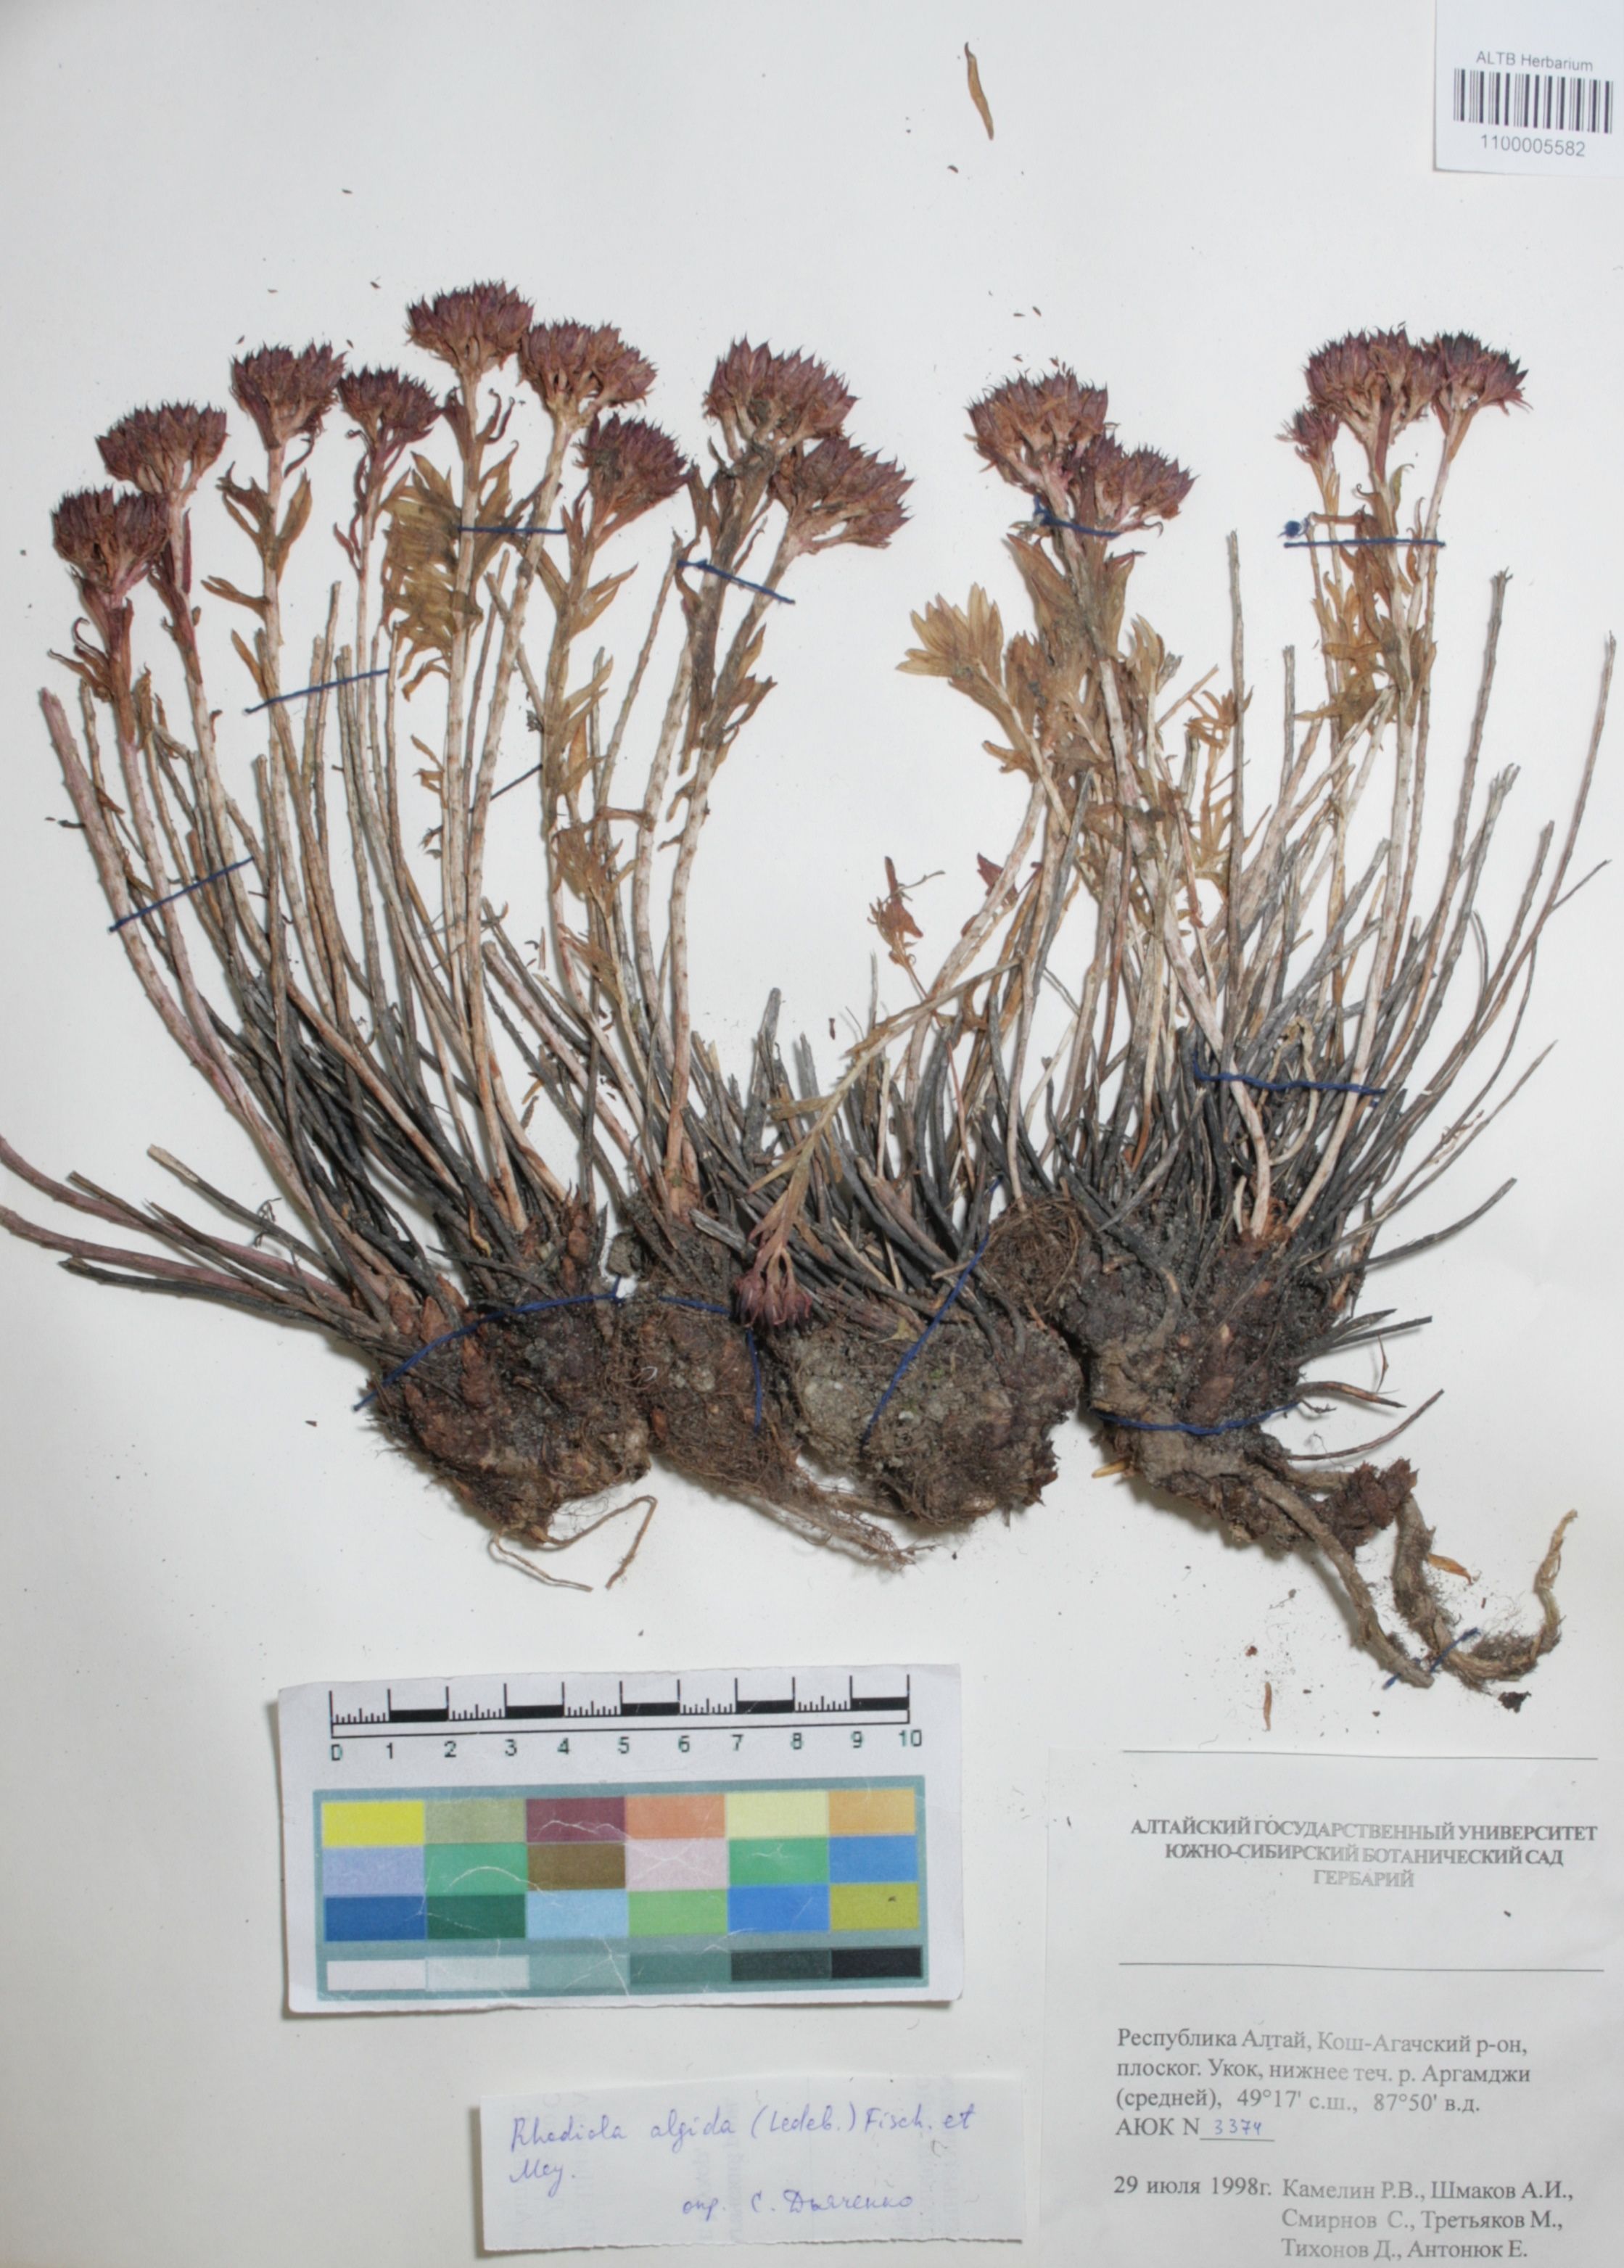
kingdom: Plantae
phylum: Tracheophyta
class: Magnoliopsida
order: Saxifragales
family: Crassulaceae
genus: Rhodiola
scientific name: Rhodiola algida
